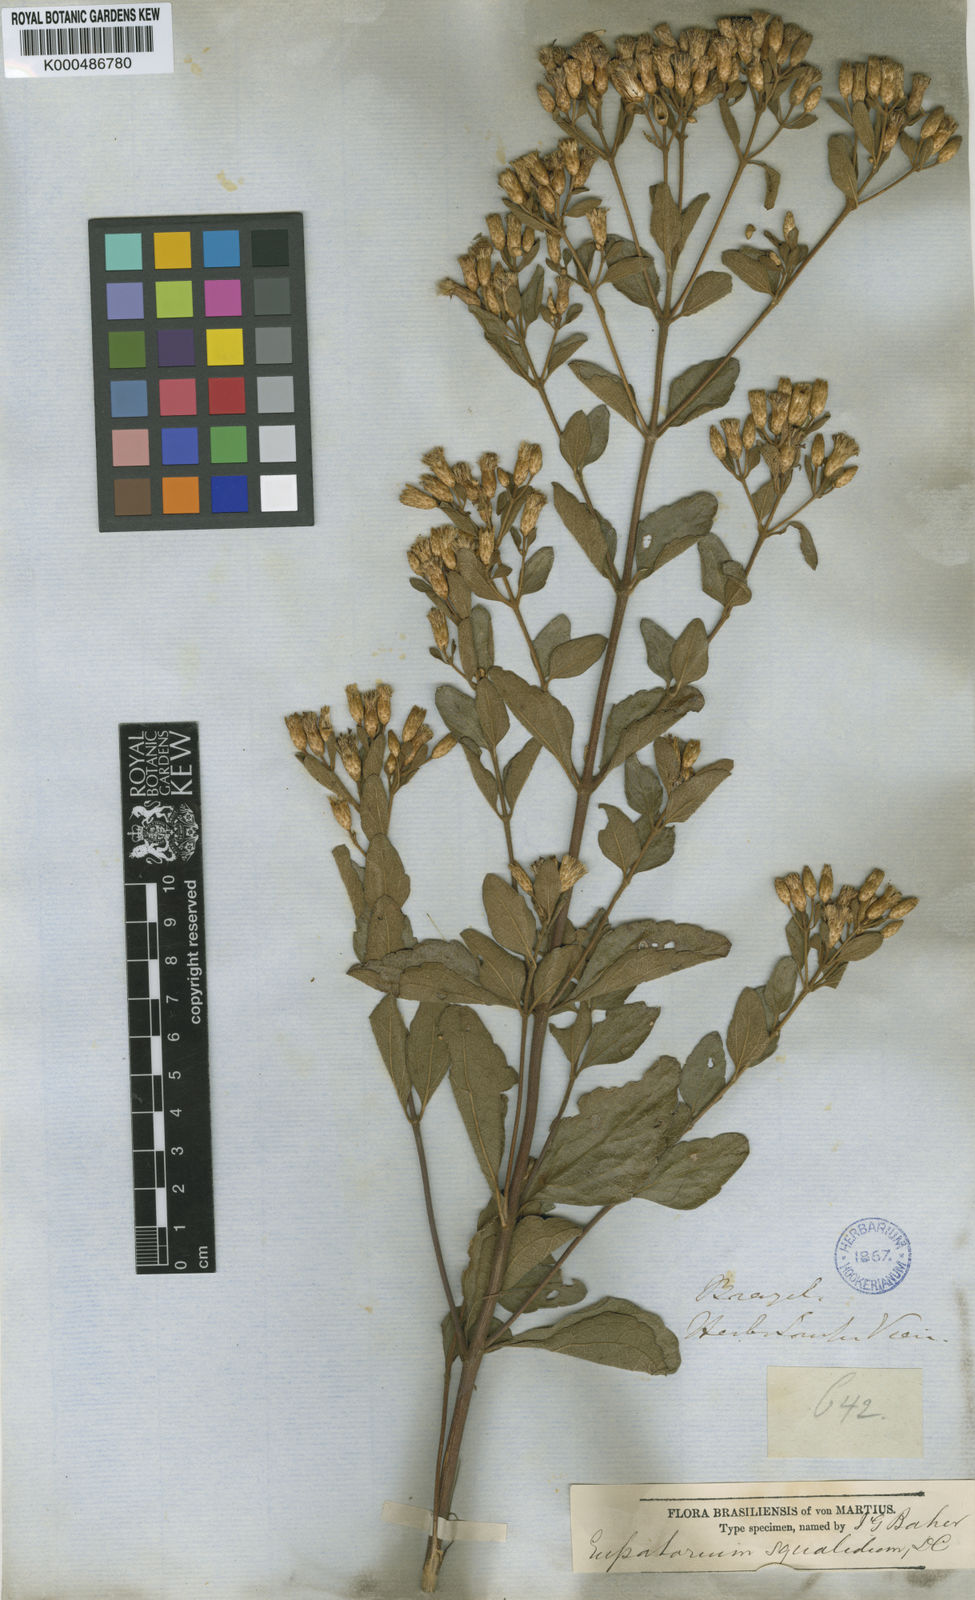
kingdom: Plantae
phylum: Tracheophyta
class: Magnoliopsida
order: Asterales
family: Asteraceae
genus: Chromolaena
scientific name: Chromolaena squalida
